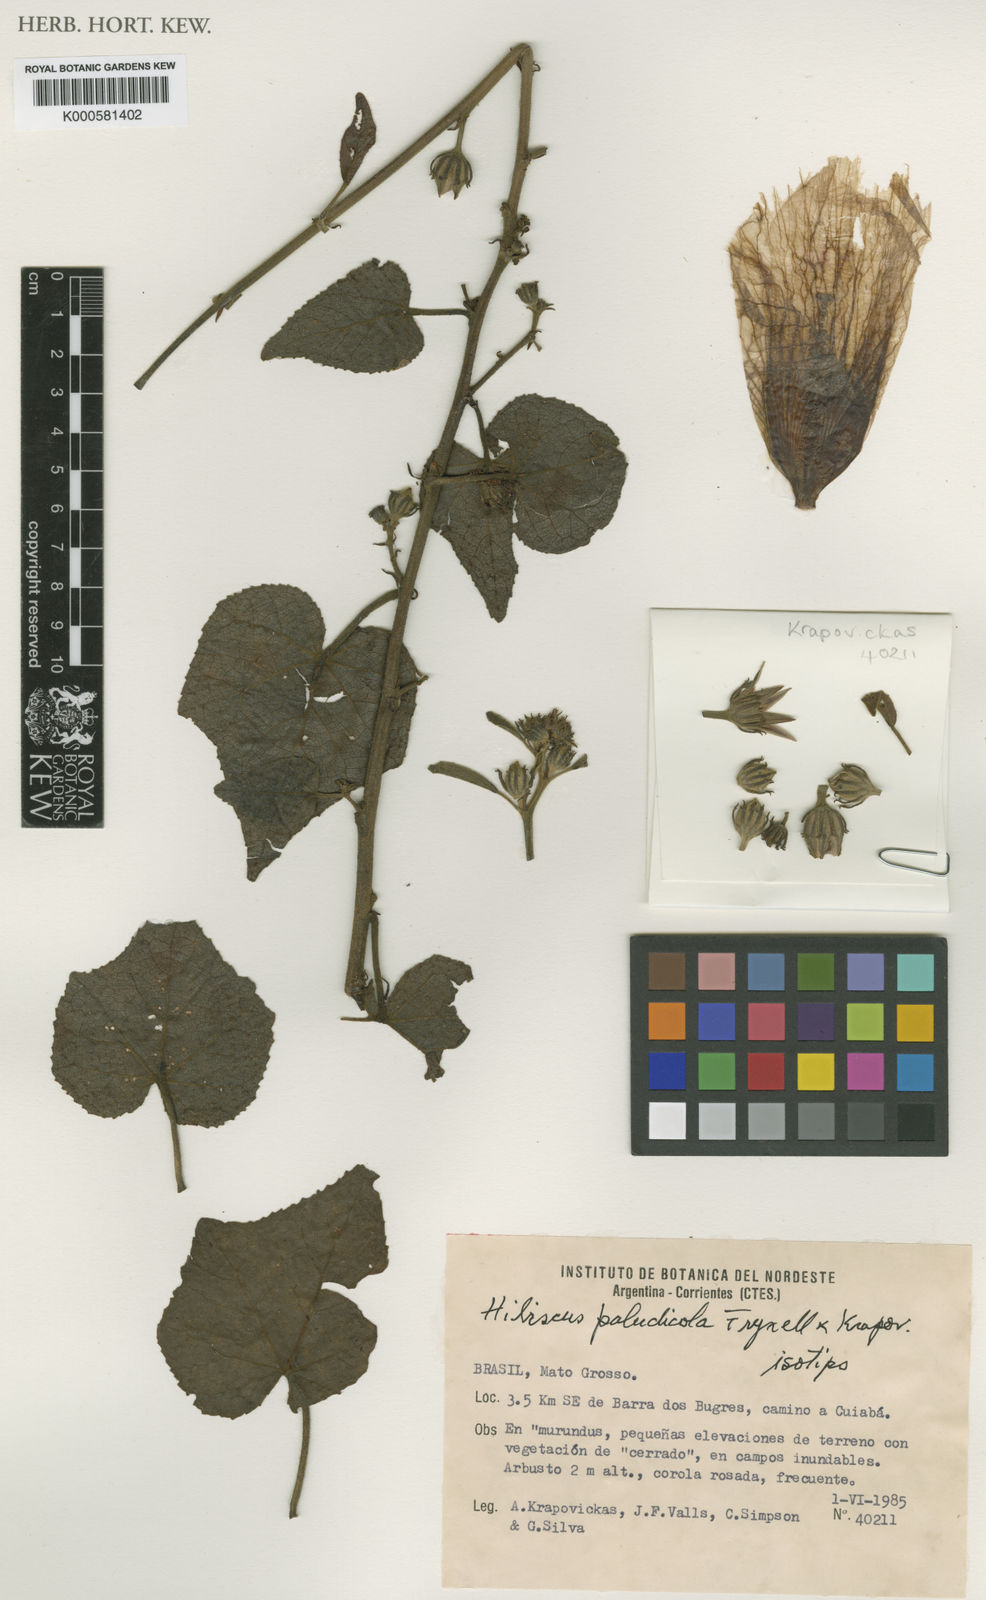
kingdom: Plantae
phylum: Tracheophyta
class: Magnoliopsida
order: Malvales
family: Malvaceae
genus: Hibiscus
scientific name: Hibiscus paludicola
